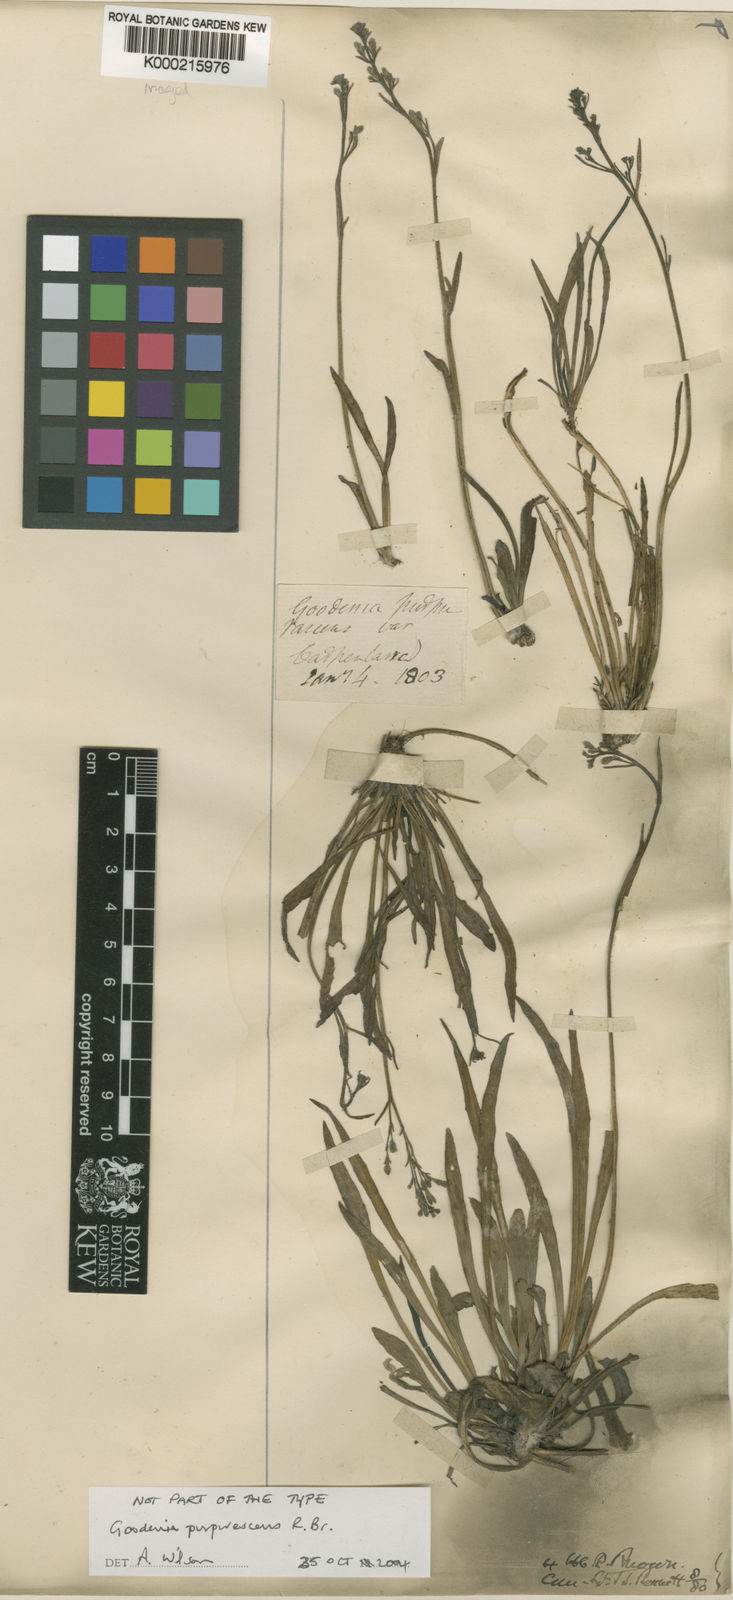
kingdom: Plantae
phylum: Tracheophyta
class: Magnoliopsida
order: Asterales
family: Goodeniaceae
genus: Goodenia
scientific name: Goodenia purpurascens
